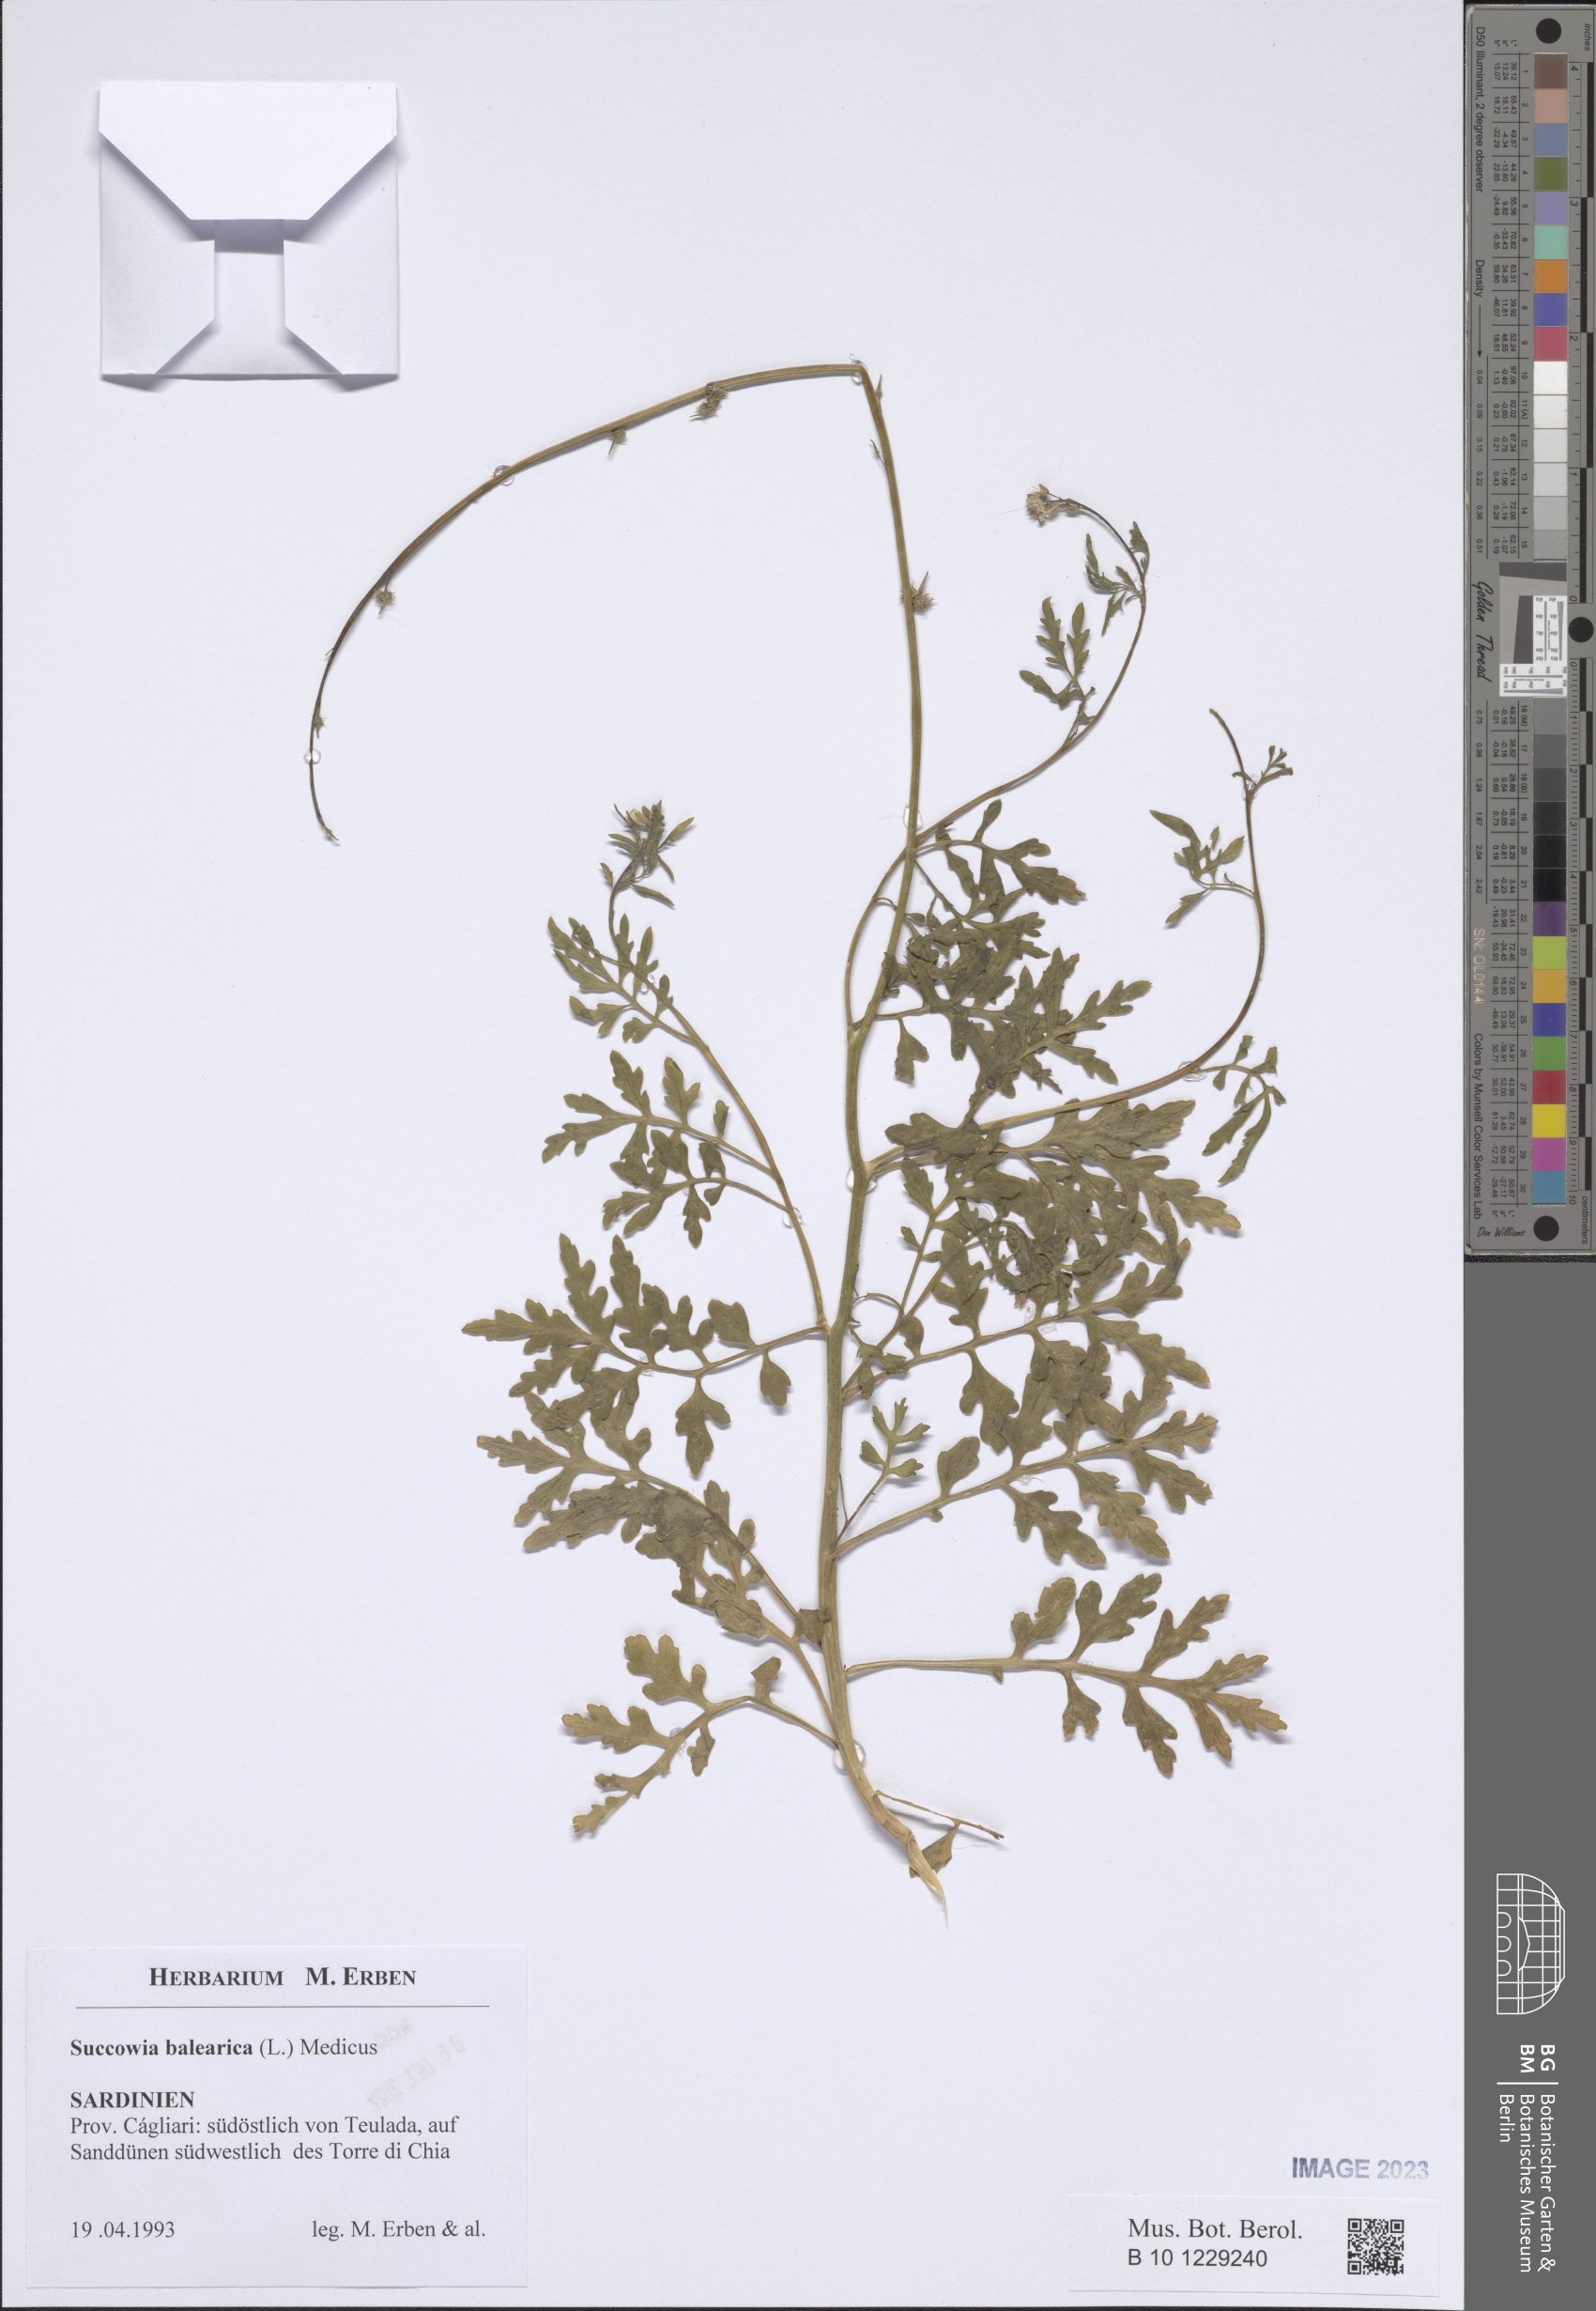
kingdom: Plantae
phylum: Tracheophyta
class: Magnoliopsida
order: Brassicales
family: Brassicaceae
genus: Succowia
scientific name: Succowia balearica
